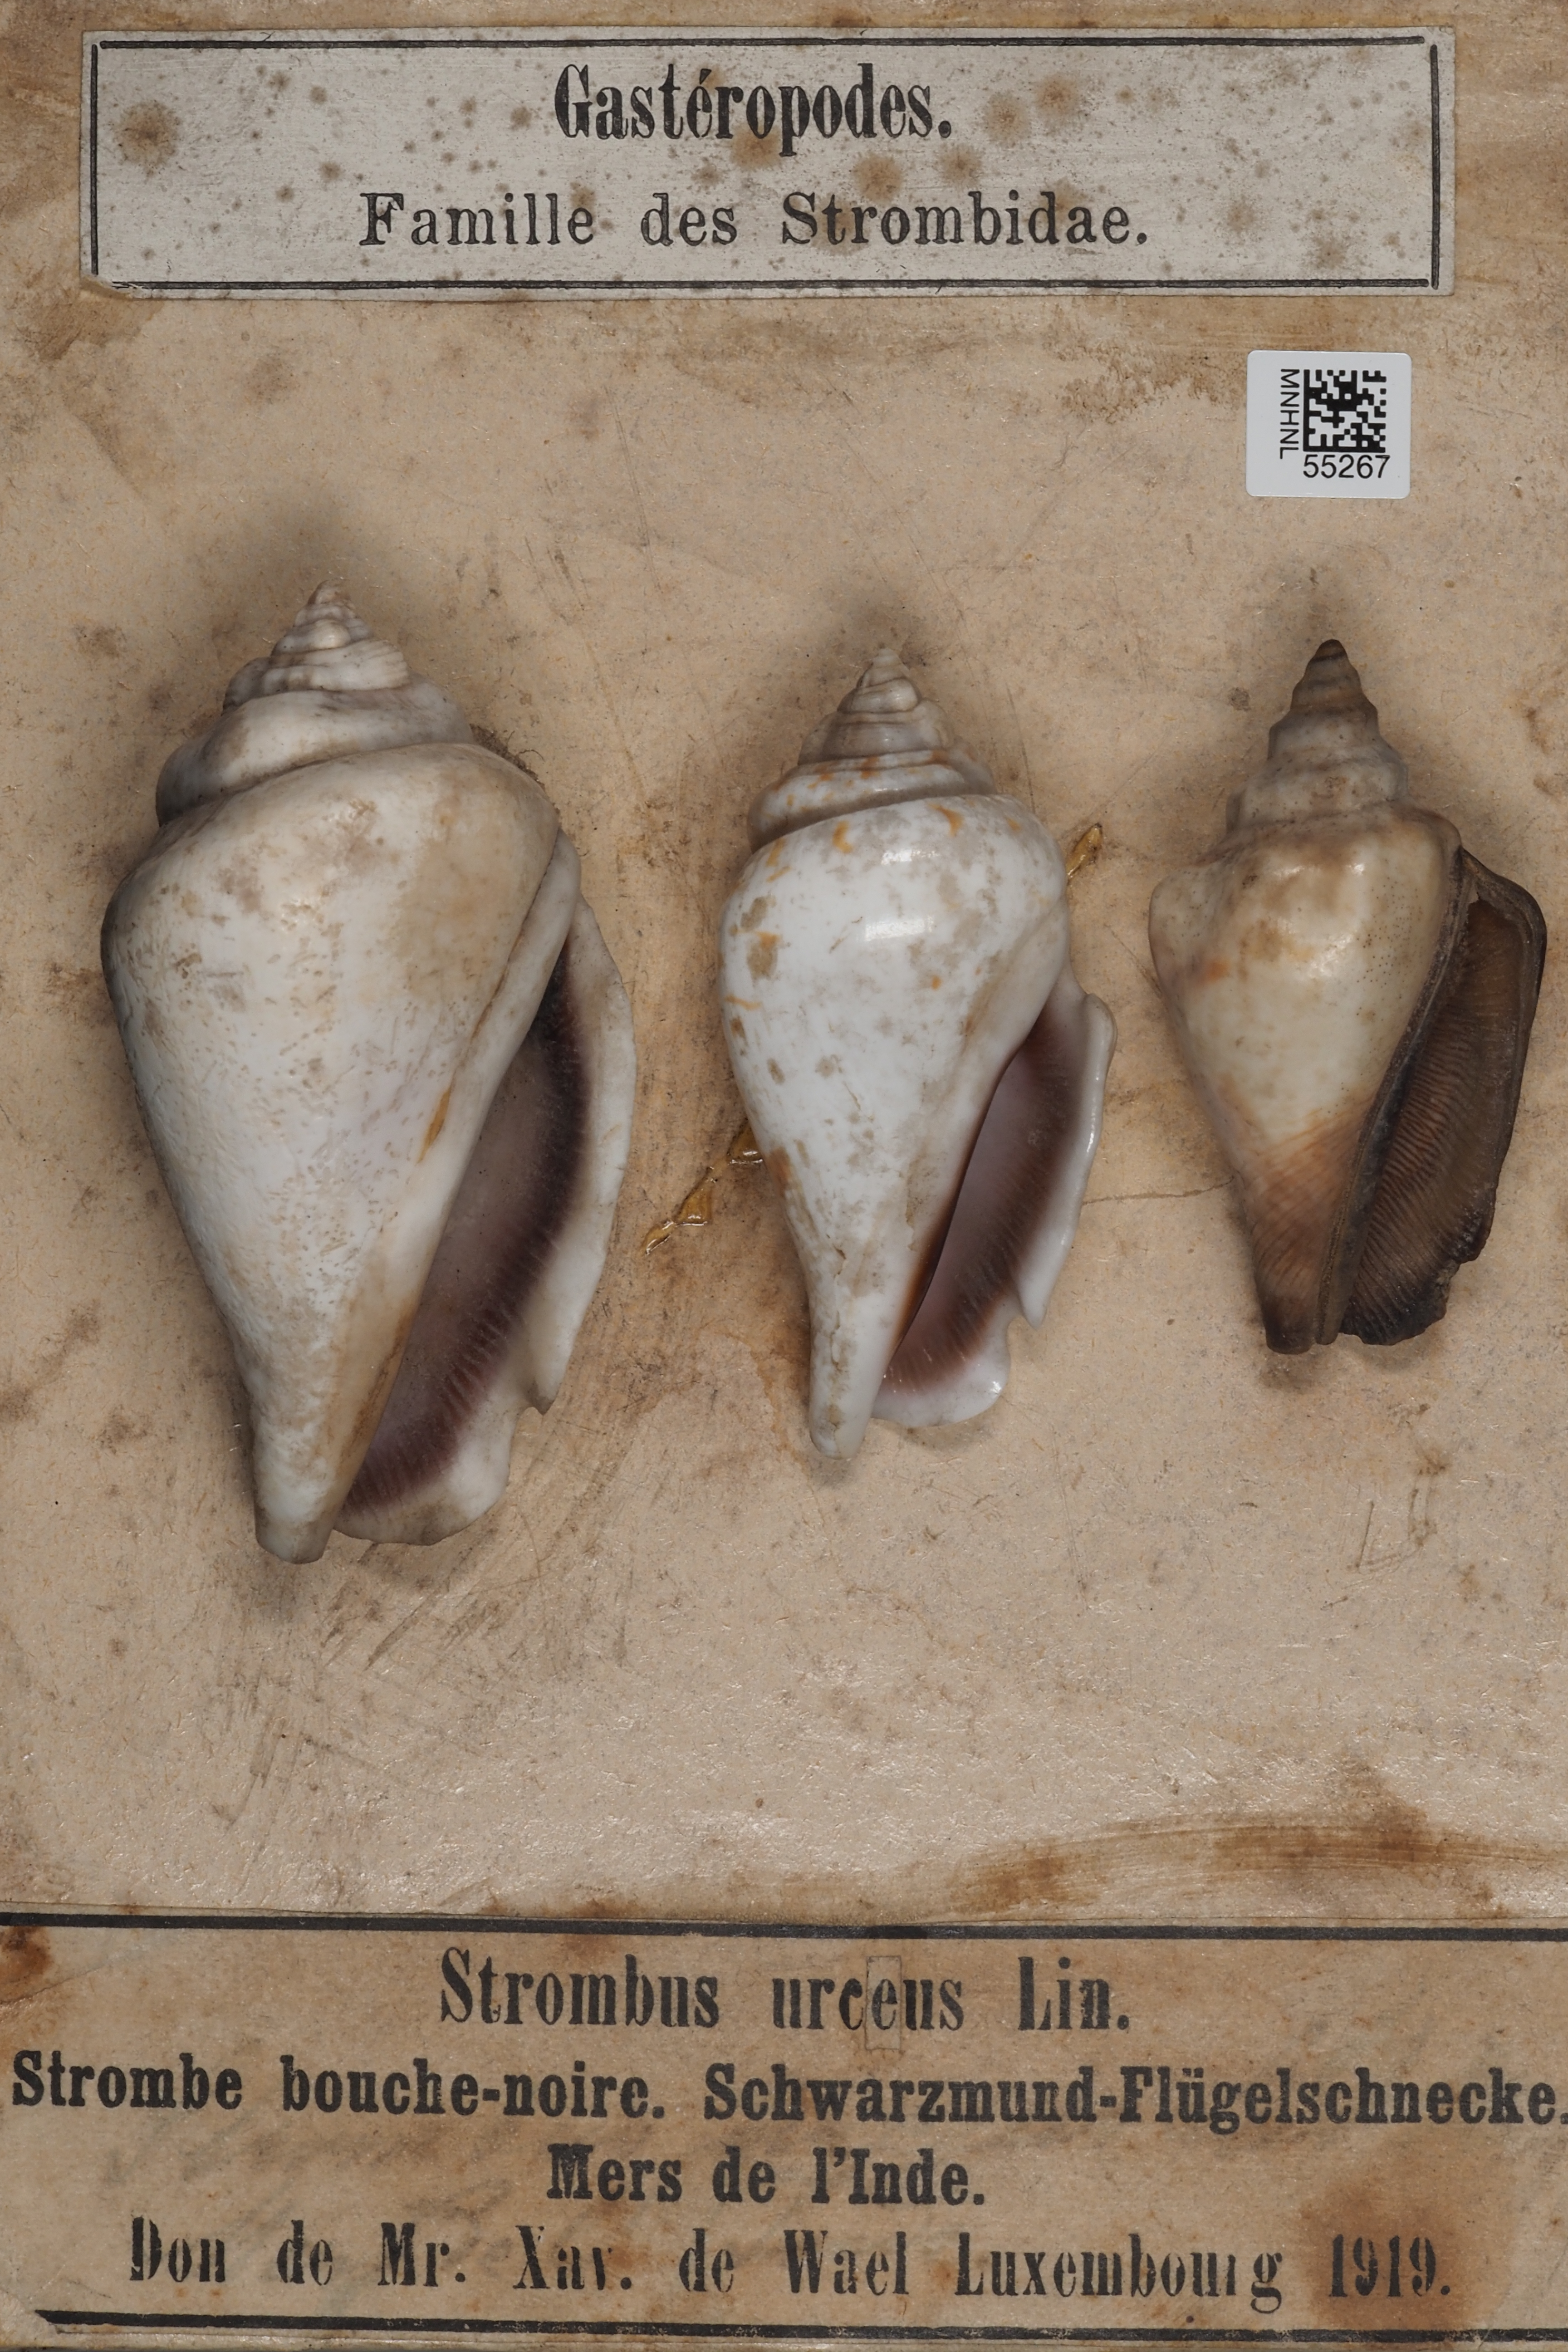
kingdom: Animalia
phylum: Mollusca
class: Gastropoda
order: Littorinimorpha
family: Strombidae
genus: Canarium
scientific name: Canarium urceus
